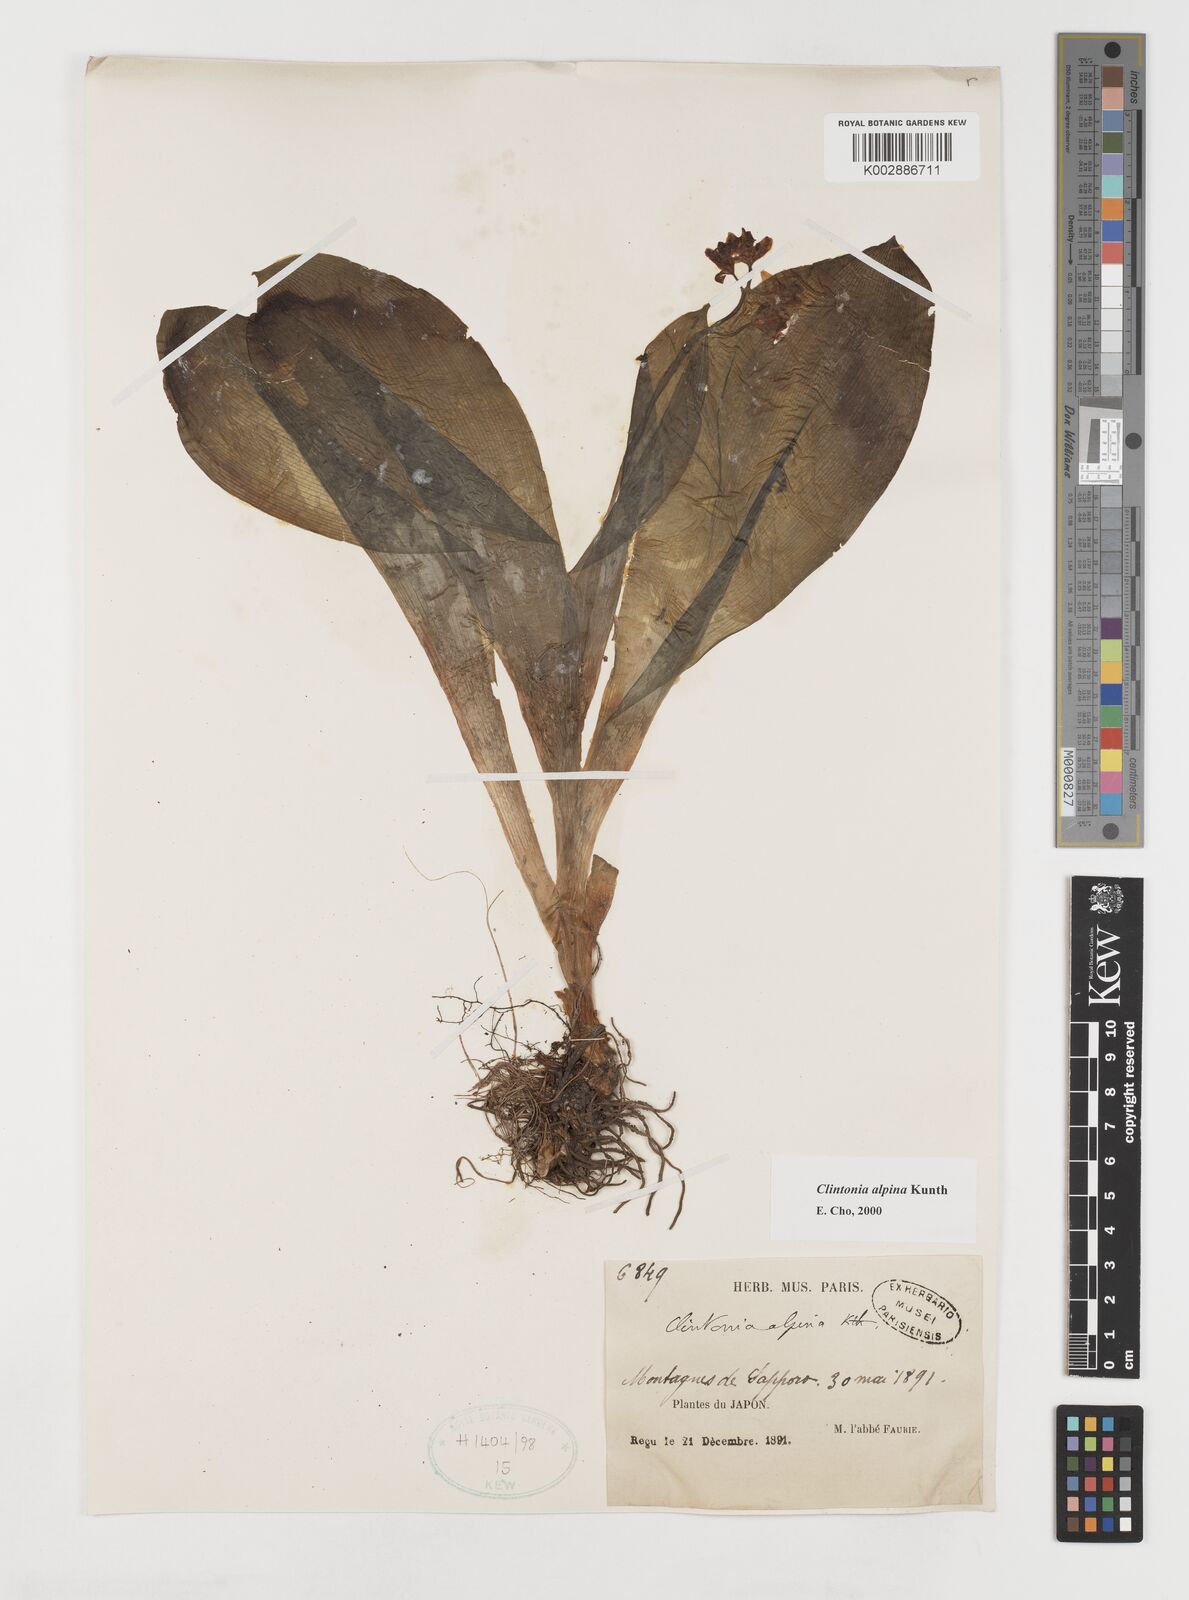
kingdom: Plantae
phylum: Tracheophyta
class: Liliopsida
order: Liliales
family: Liliaceae
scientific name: Liliaceae
